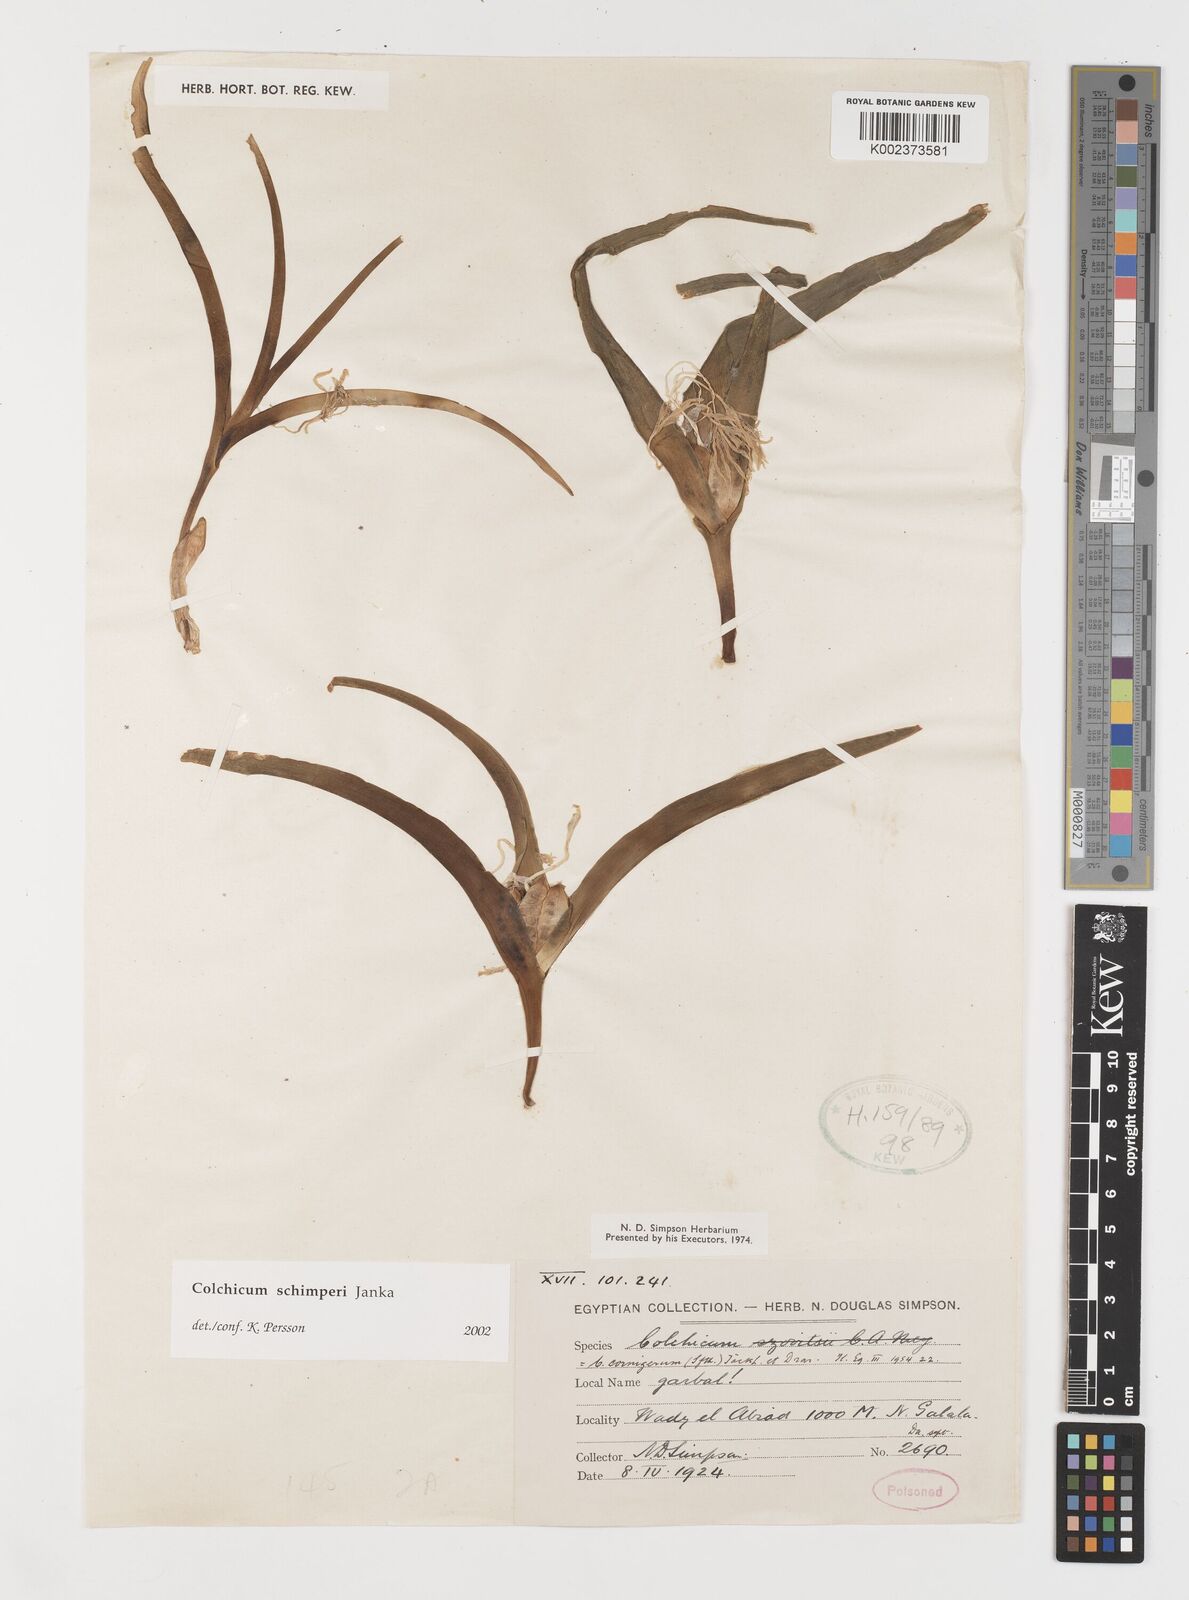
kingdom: Plantae
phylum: Tracheophyta
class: Liliopsida
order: Liliales
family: Colchicaceae
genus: Colchicum
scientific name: Colchicum schimperi
